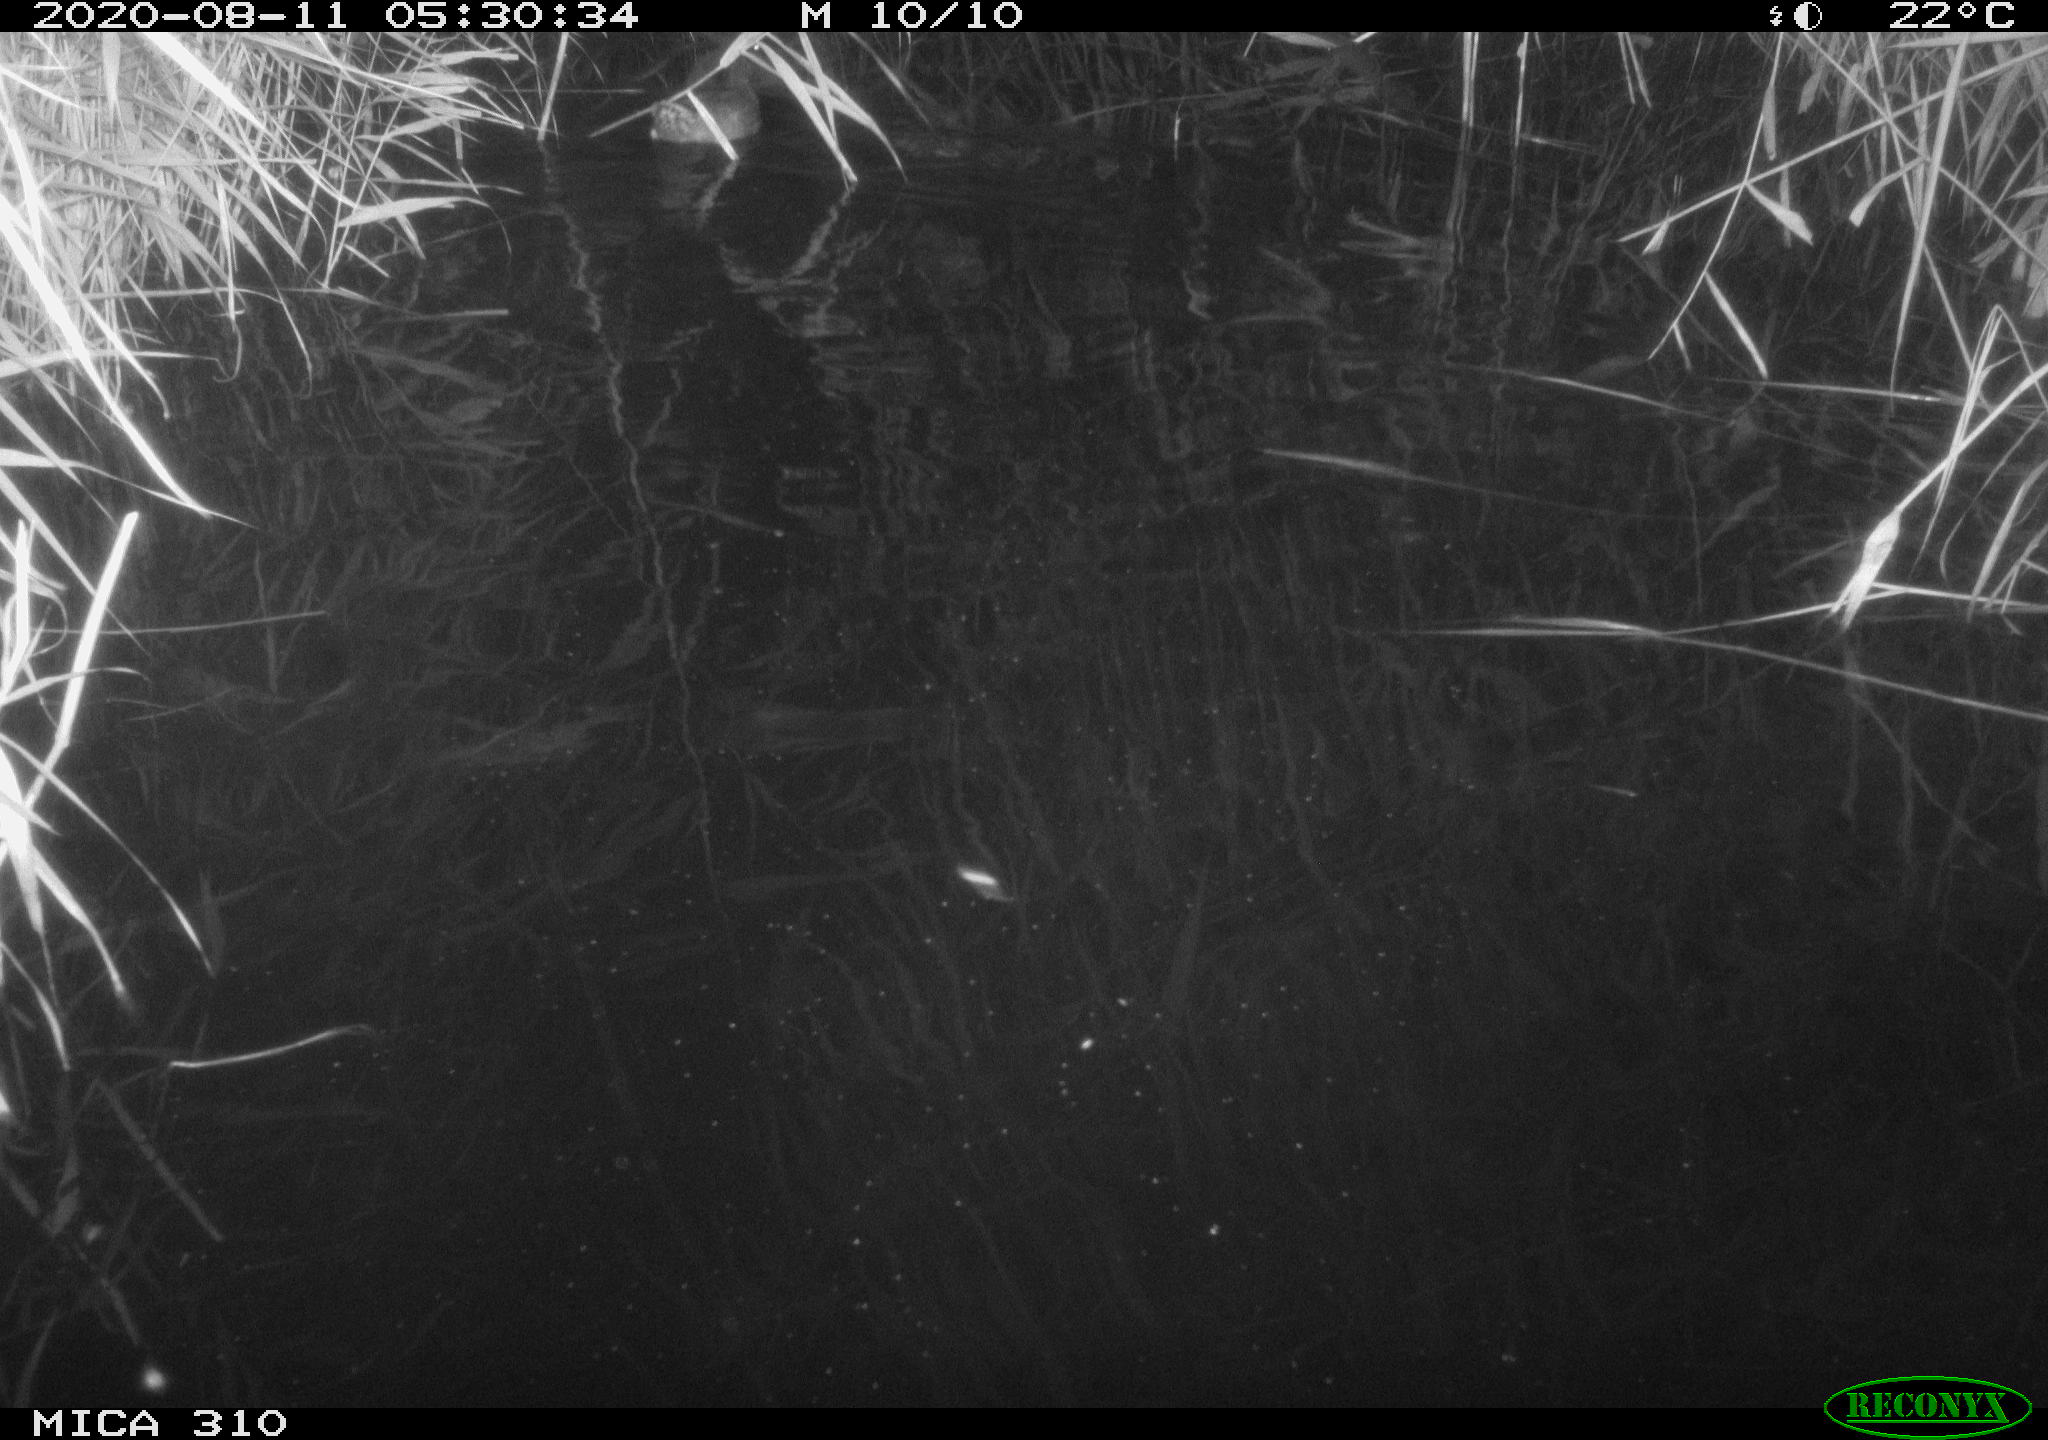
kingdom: Animalia
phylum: Chordata
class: Aves
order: Anseriformes
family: Anatidae
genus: Anas
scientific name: Anas platyrhynchos
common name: Mallard
